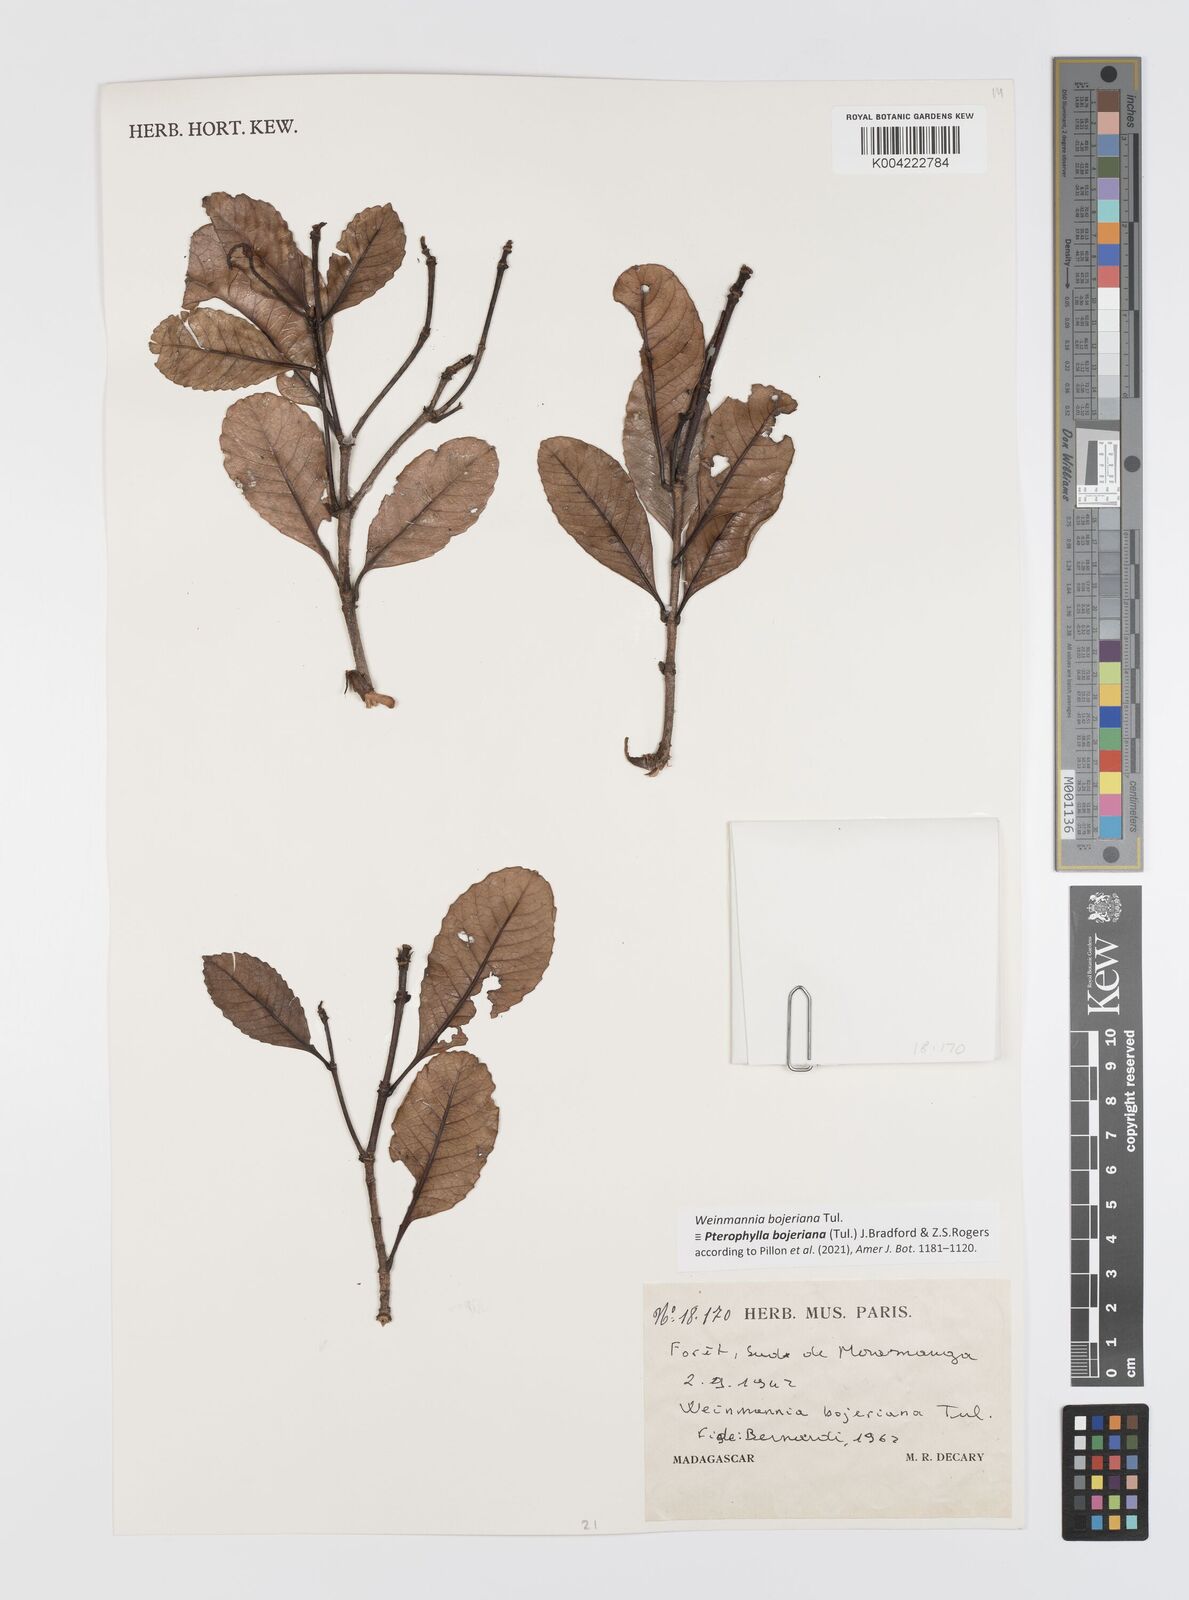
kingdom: Plantae
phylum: Tracheophyta
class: Magnoliopsida
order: Oxalidales
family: Cunoniaceae
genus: Pterophylla
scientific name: Pterophylla
